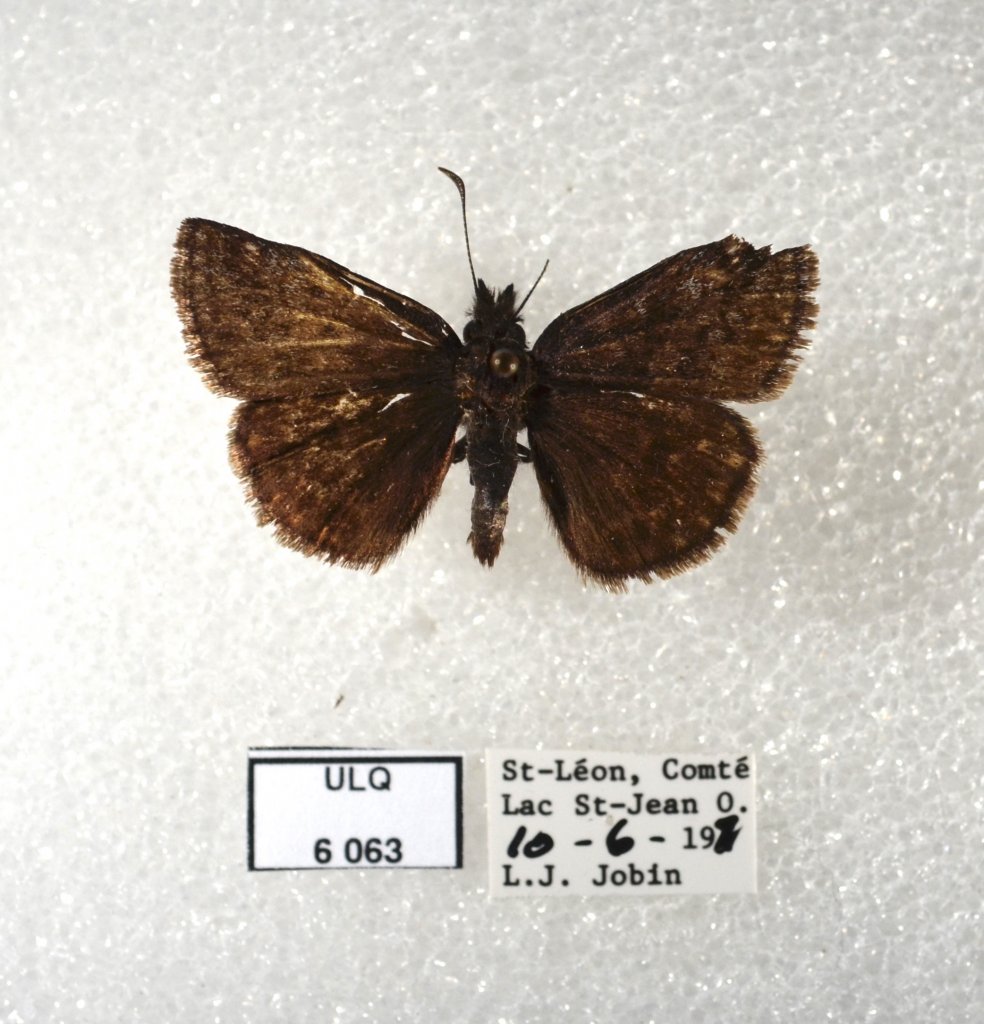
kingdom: Animalia
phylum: Arthropoda
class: Insecta
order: Lepidoptera
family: Hesperiidae
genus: Erynnis
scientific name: Erynnis icelus
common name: Dreamy Duskywing
